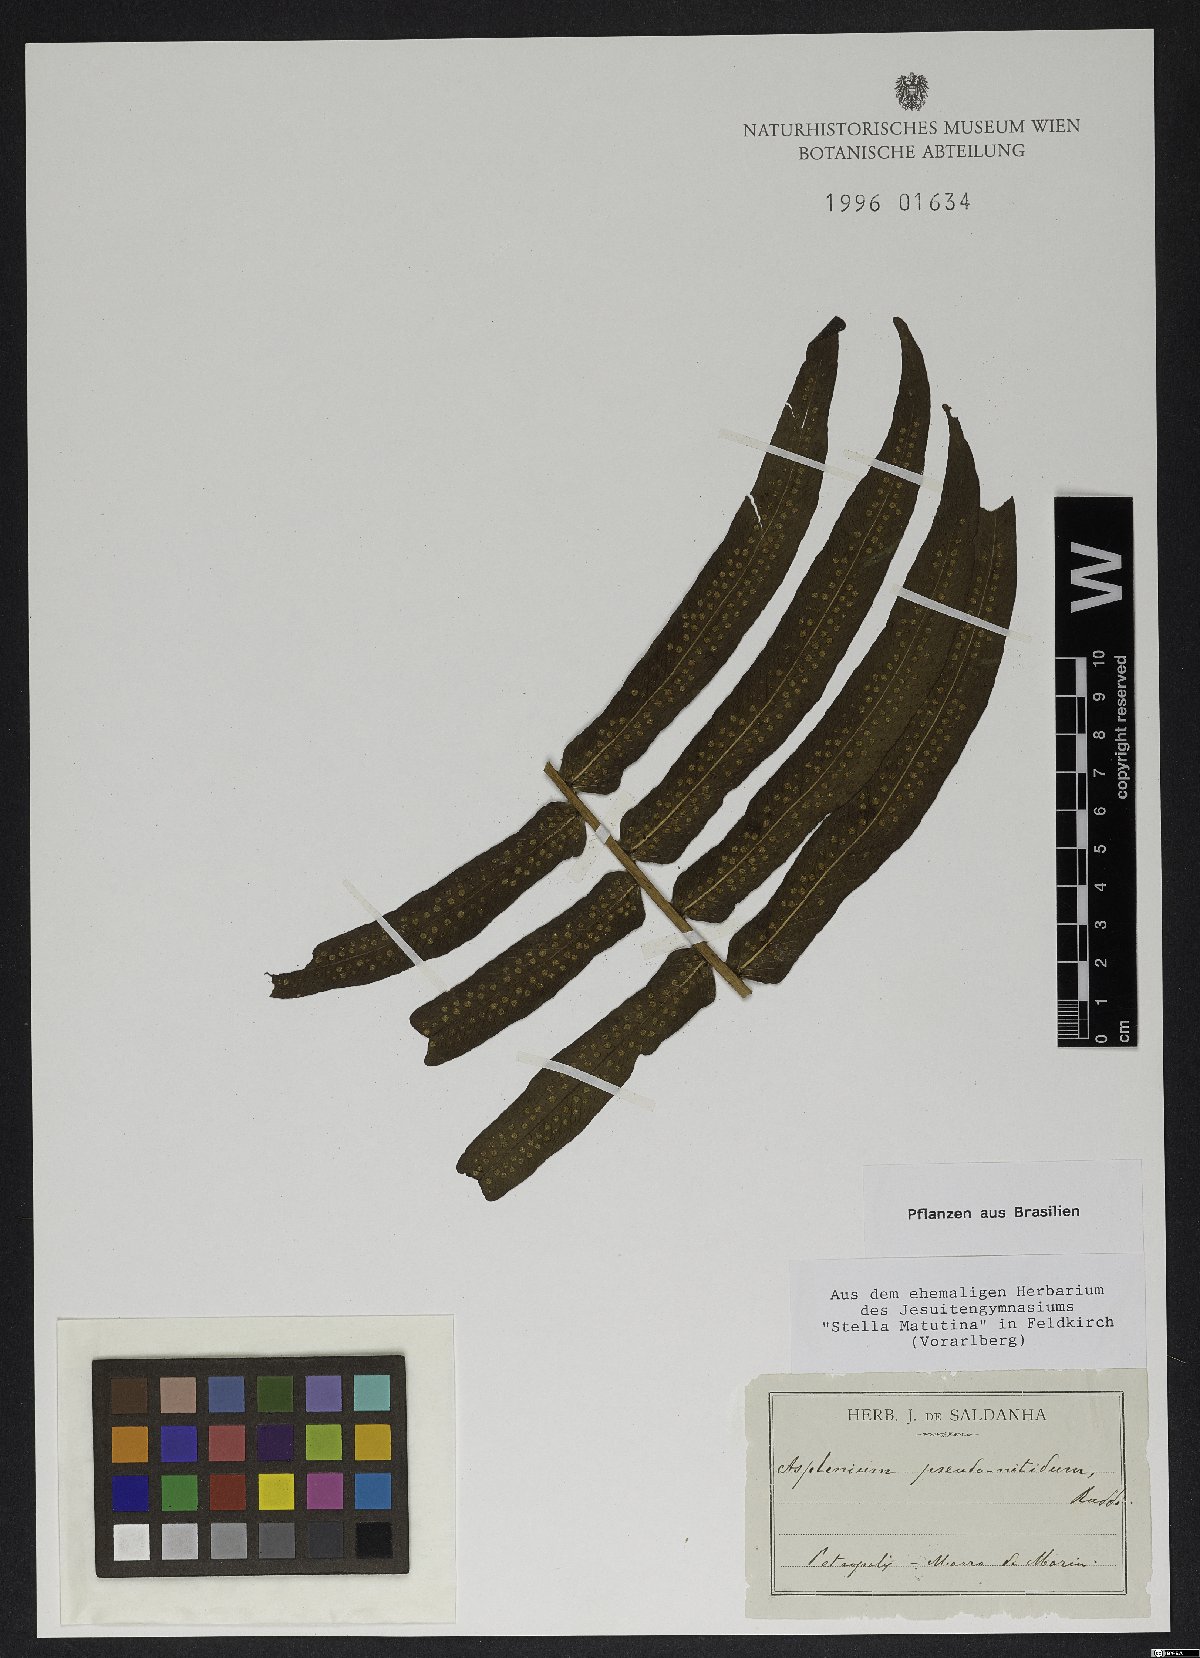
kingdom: Plantae
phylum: Tracheophyta
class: Polypodiopsida
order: Polypodiales
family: Aspleniaceae
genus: Asplenium
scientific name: Asplenium pseudonitidum
